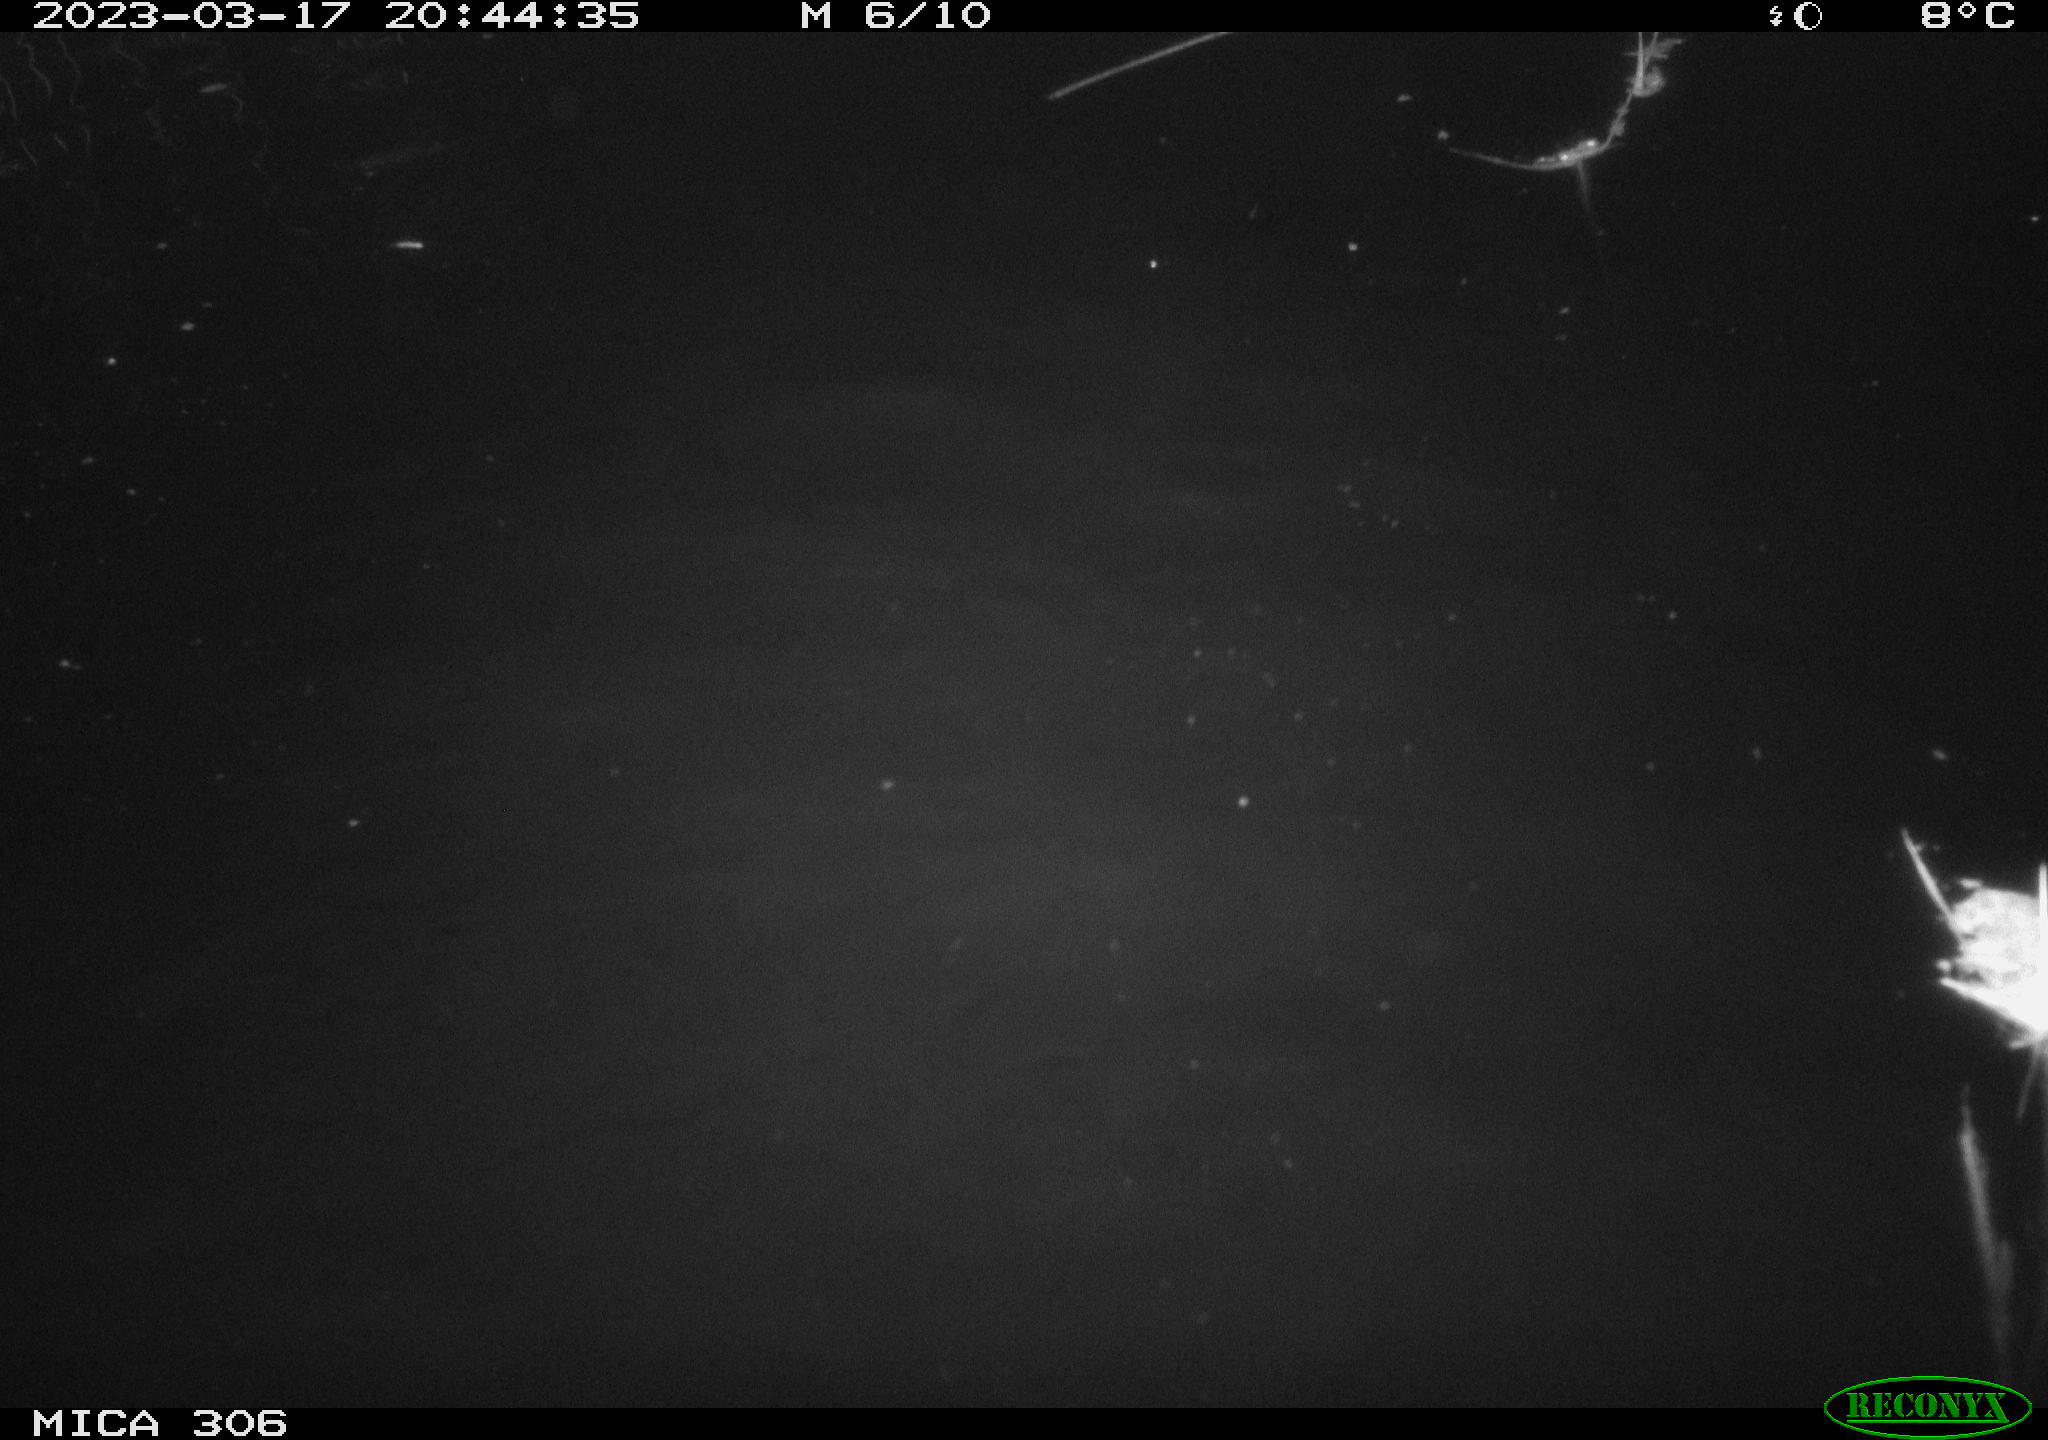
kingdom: Animalia
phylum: Chordata
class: Mammalia
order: Rodentia
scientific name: Rodentia
